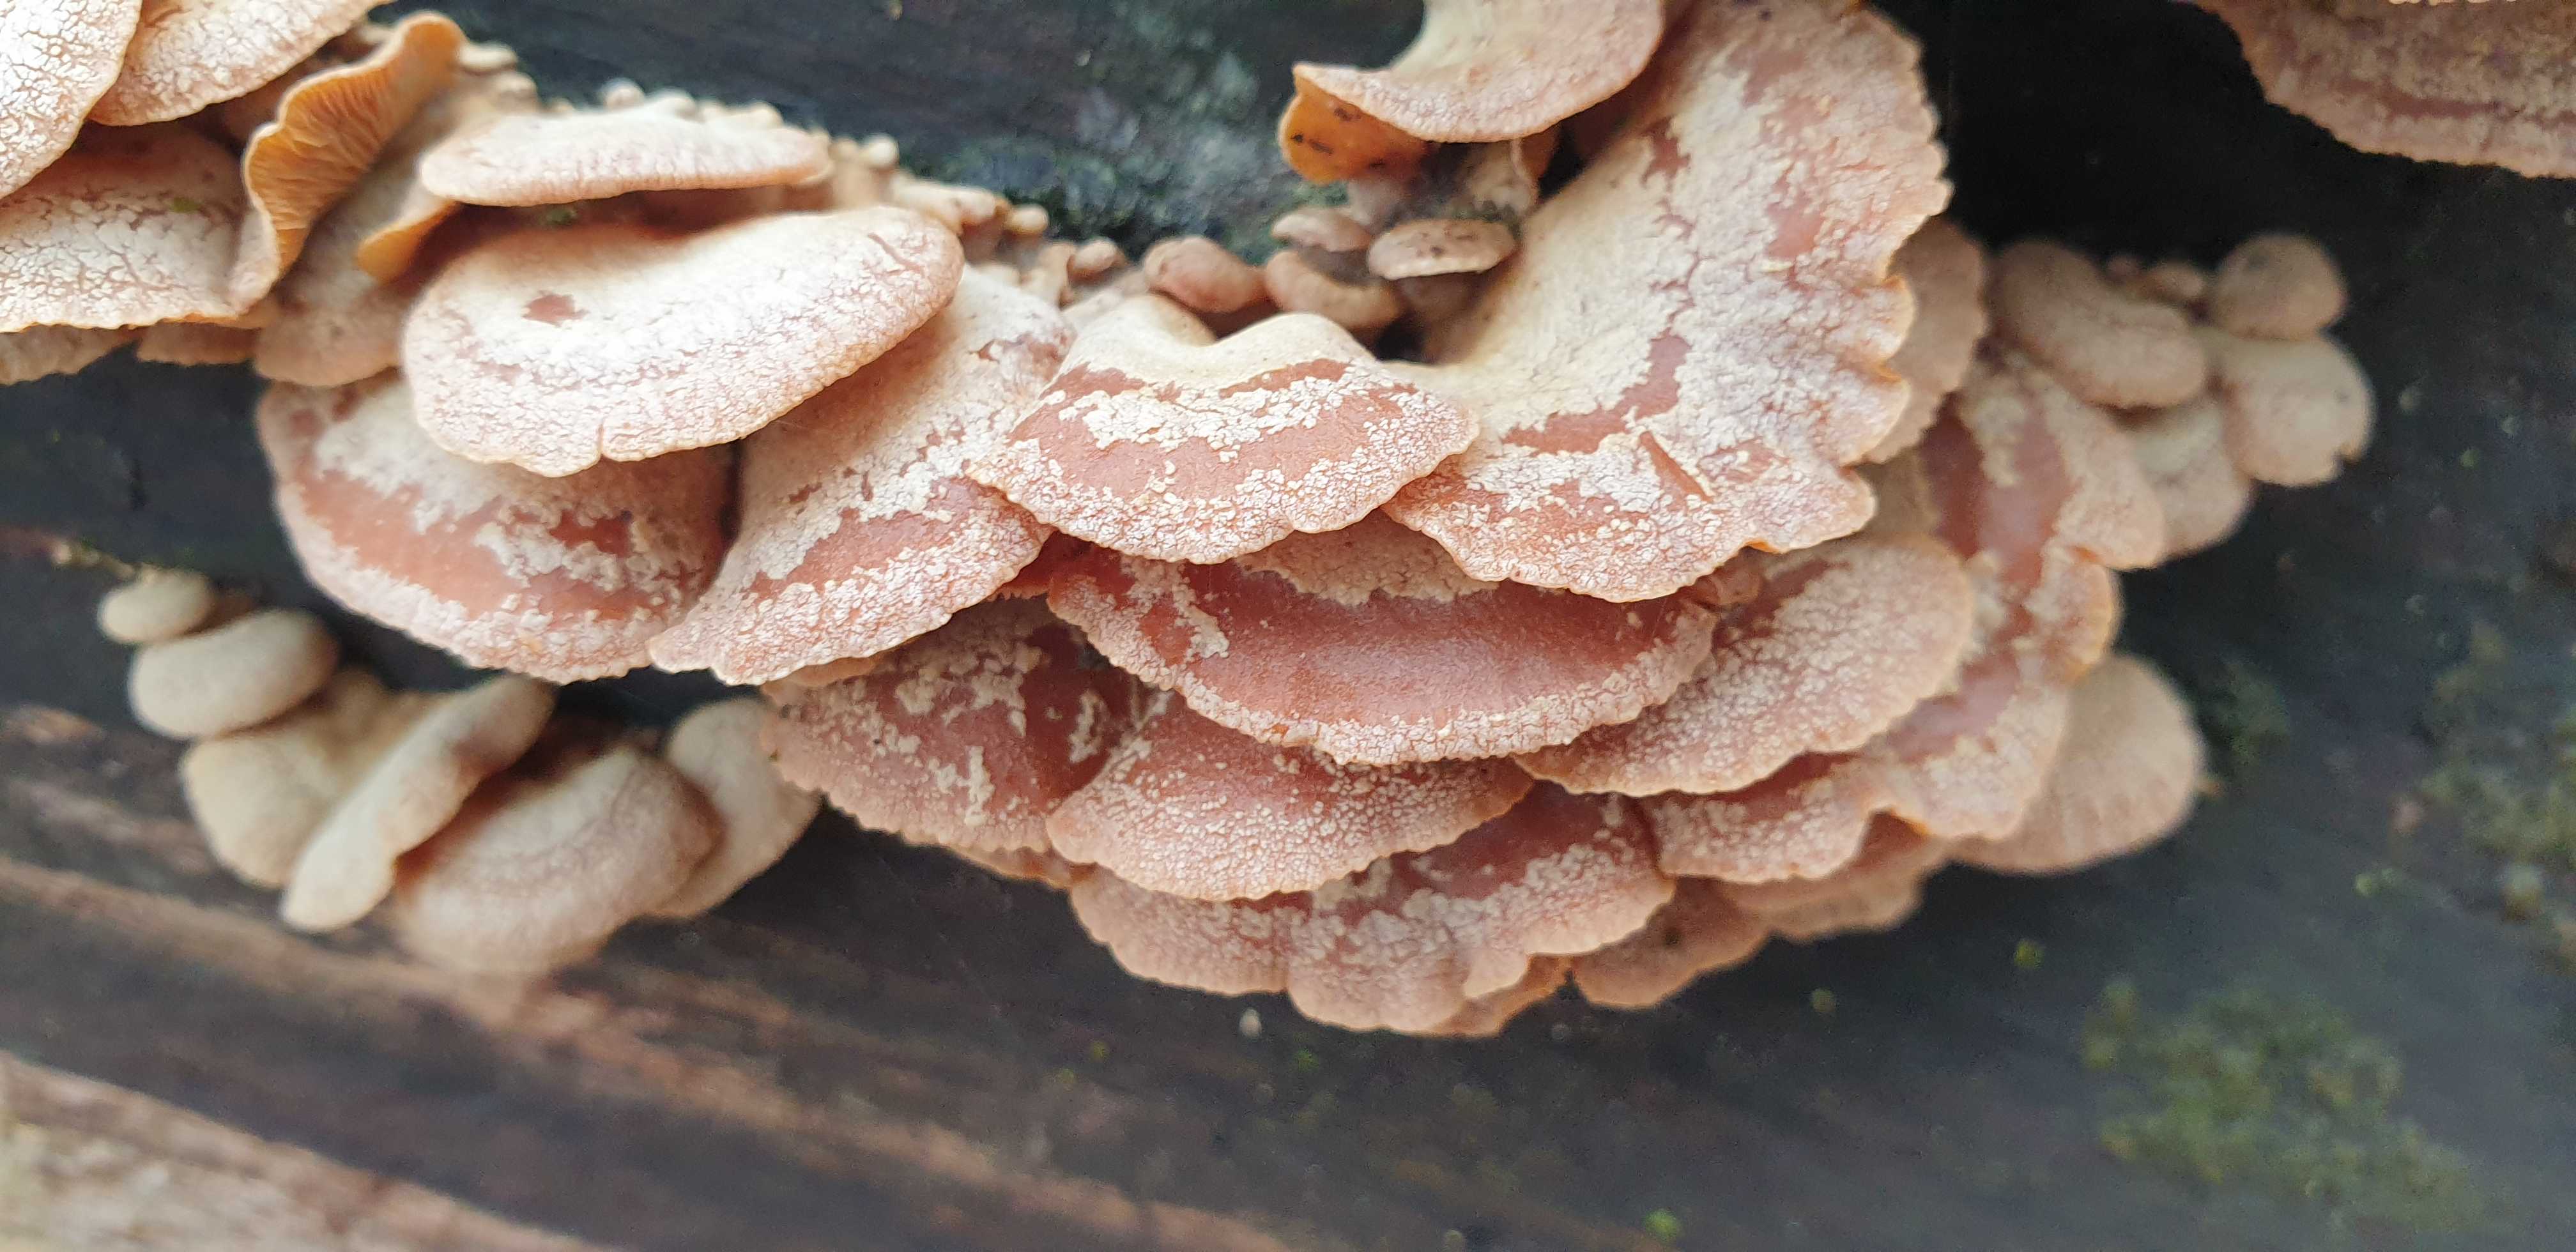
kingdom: Fungi
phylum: Basidiomycota
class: Agaricomycetes
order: Agaricales
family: Mycenaceae
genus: Panellus
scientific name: Panellus stipticus
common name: kliddet epaulethat
